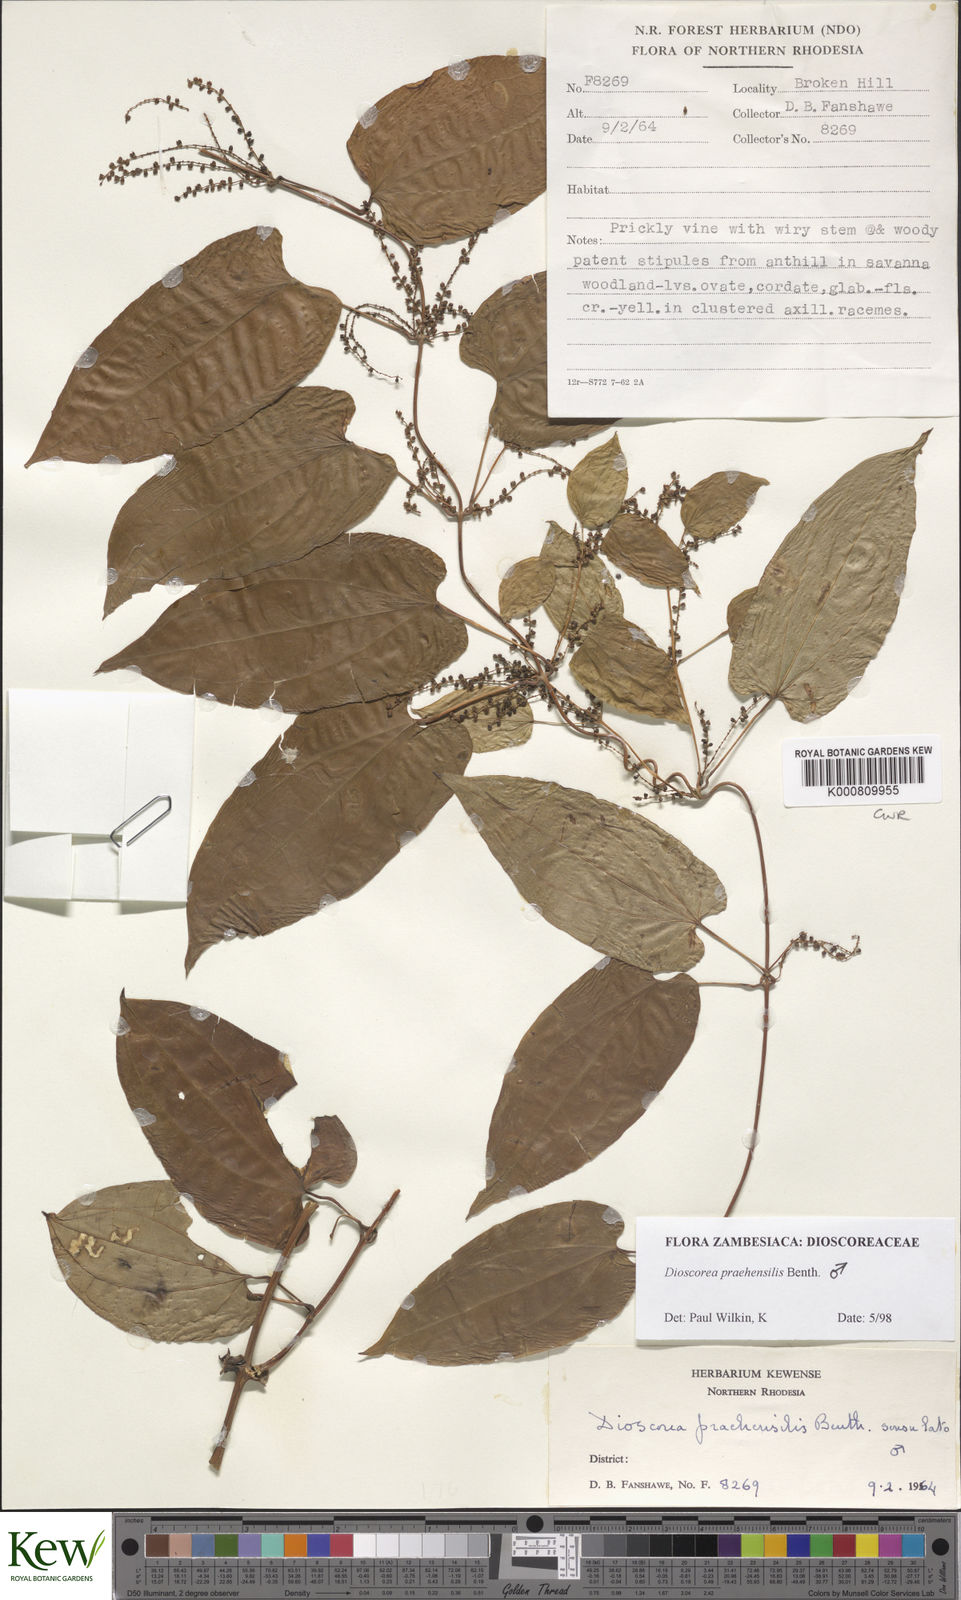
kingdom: Plantae
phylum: Tracheophyta
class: Liliopsida
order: Dioscoreales
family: Dioscoreaceae
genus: Dioscorea
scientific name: Dioscorea praehensilis
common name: Bush yam
